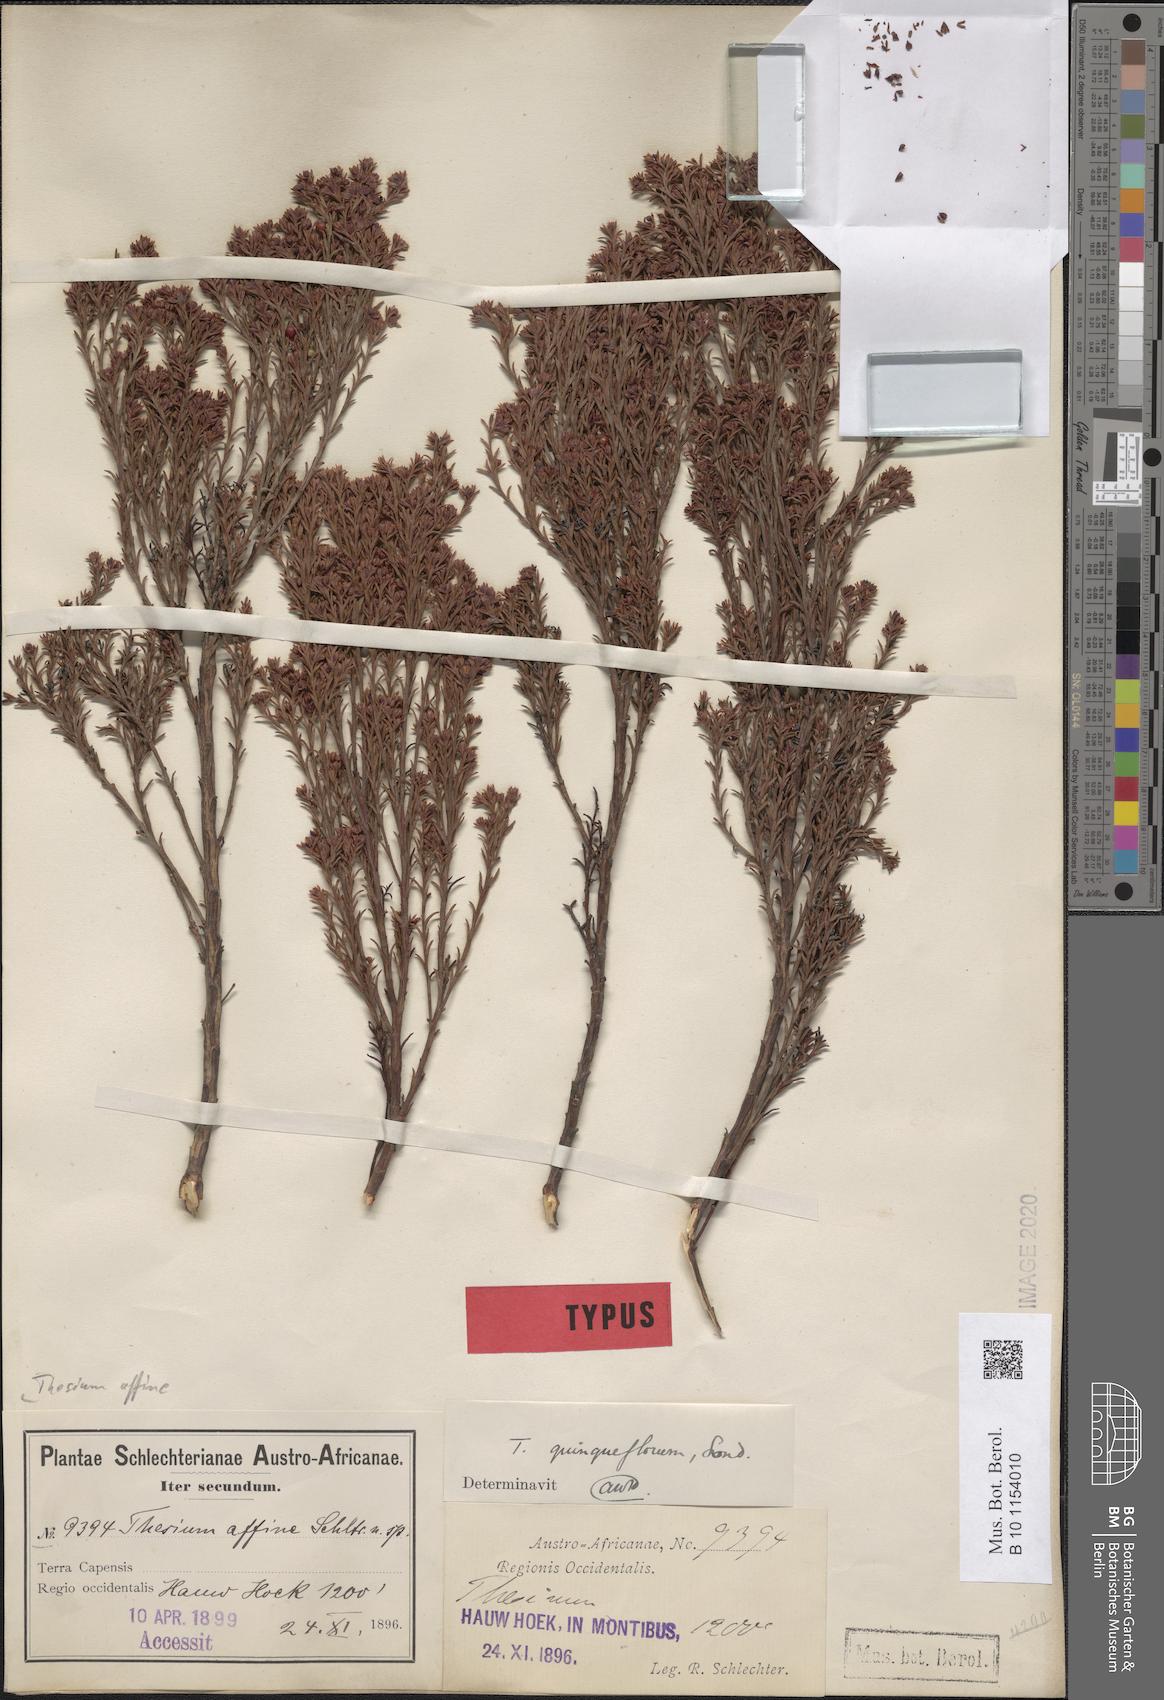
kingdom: Plantae
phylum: Tracheophyta
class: Magnoliopsida
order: Santalales
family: Thesiaceae
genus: Thesium
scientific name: Thesium affine
